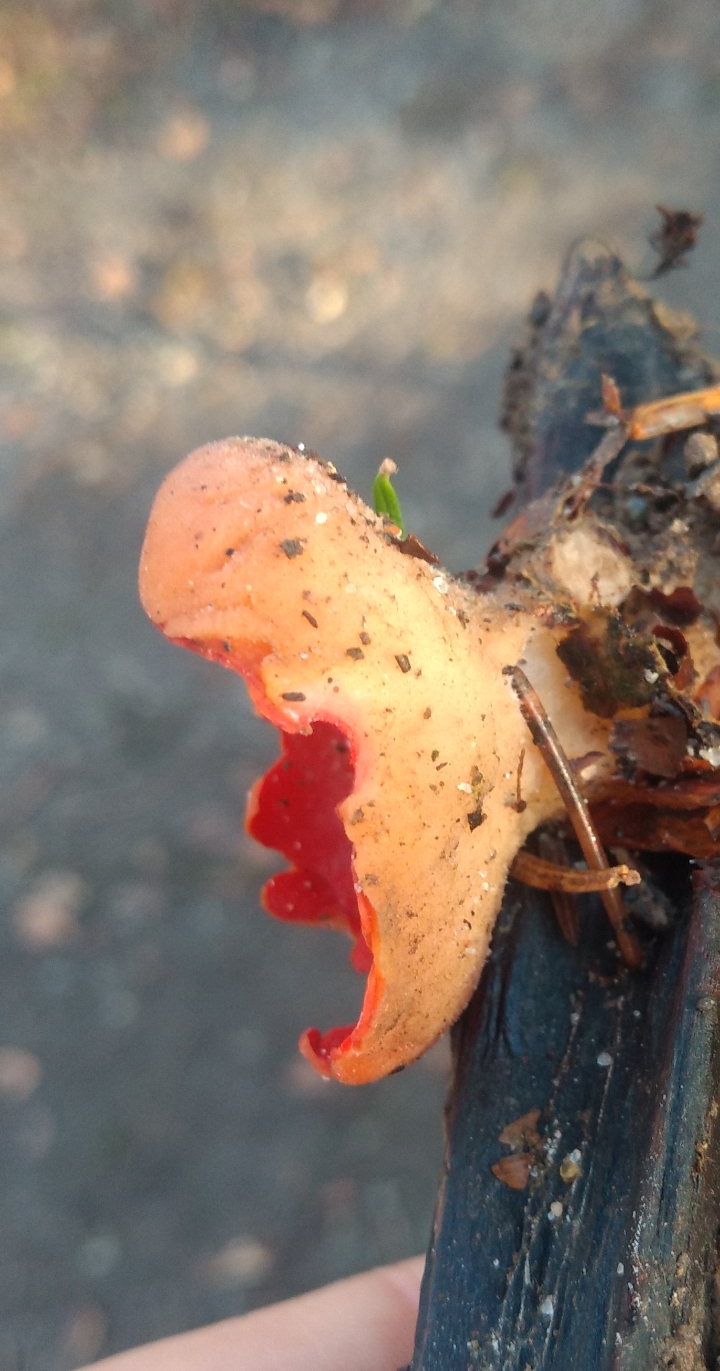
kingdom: Fungi
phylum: Ascomycota
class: Pezizomycetes
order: Pezizales
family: Sarcoscyphaceae
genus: Sarcoscypha
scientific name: Sarcoscypha coccinea
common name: skarlagen-pragtbæger
